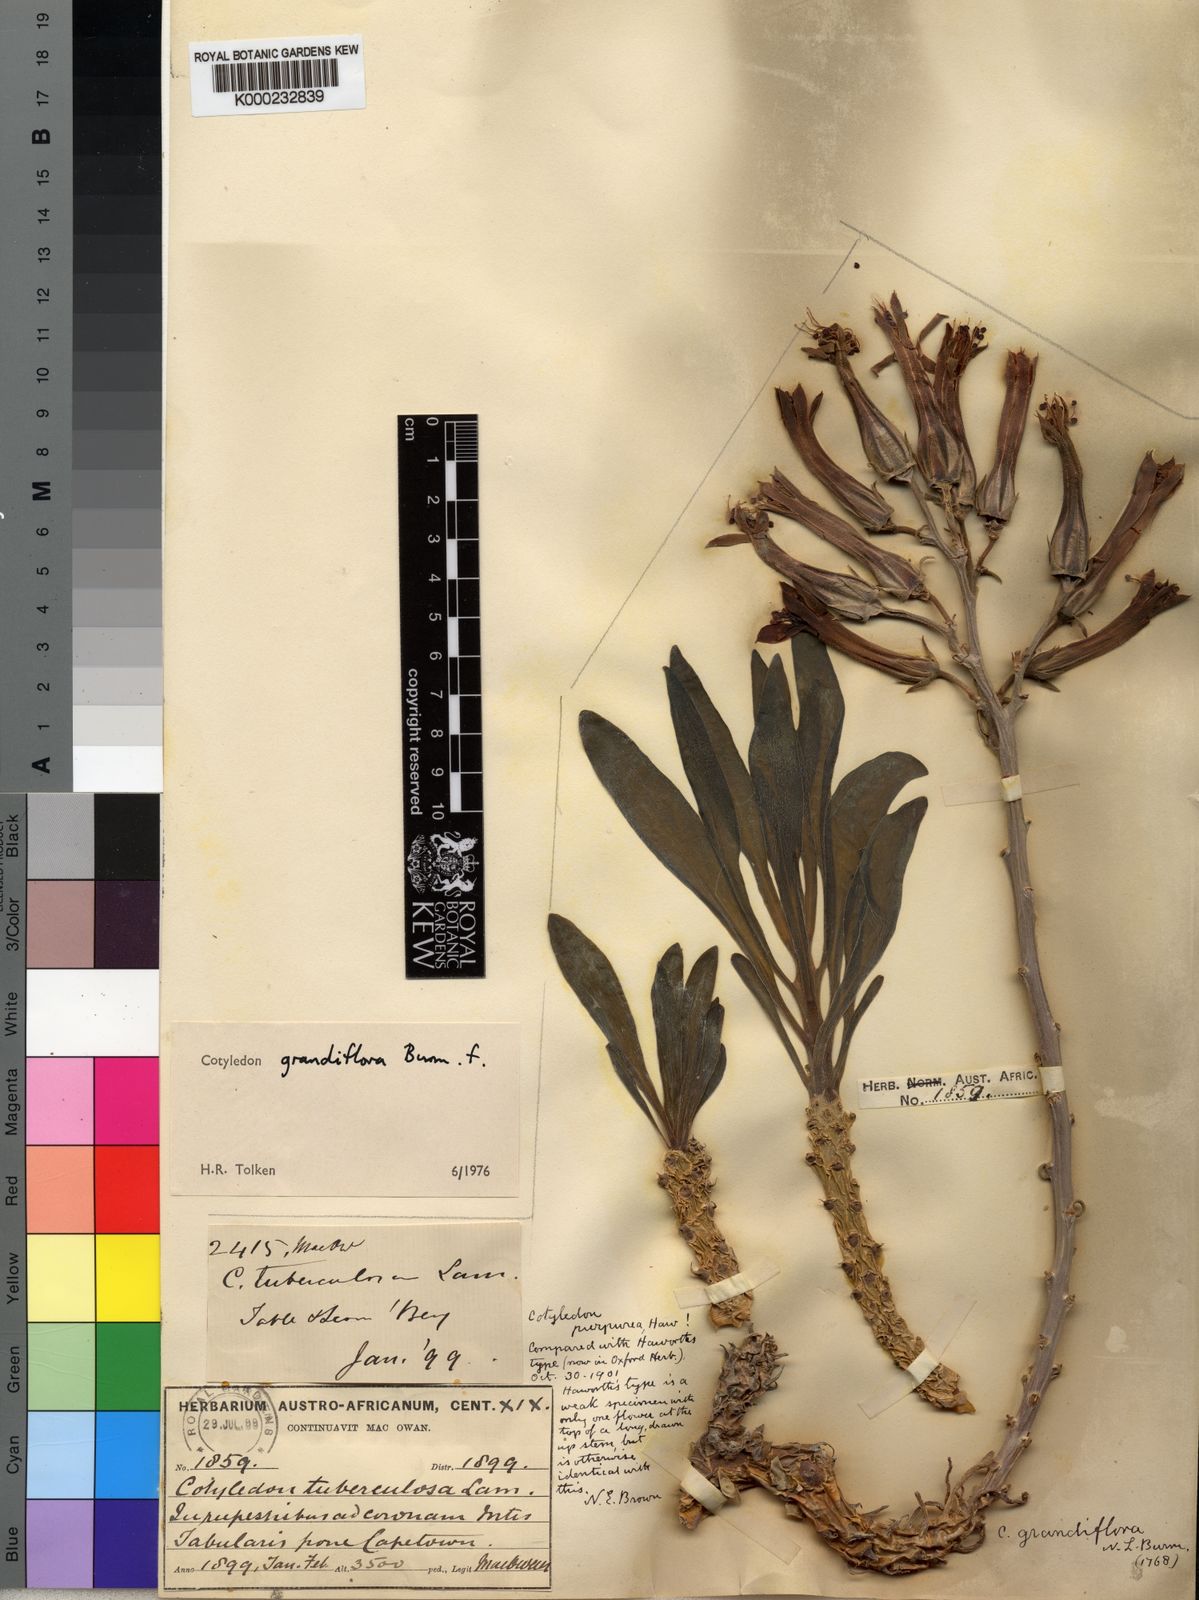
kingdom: Plantae
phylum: Tracheophyta
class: Magnoliopsida
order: Saxifragales
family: Crassulaceae
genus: Tylecodon
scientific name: Tylecodon grandiflorus
